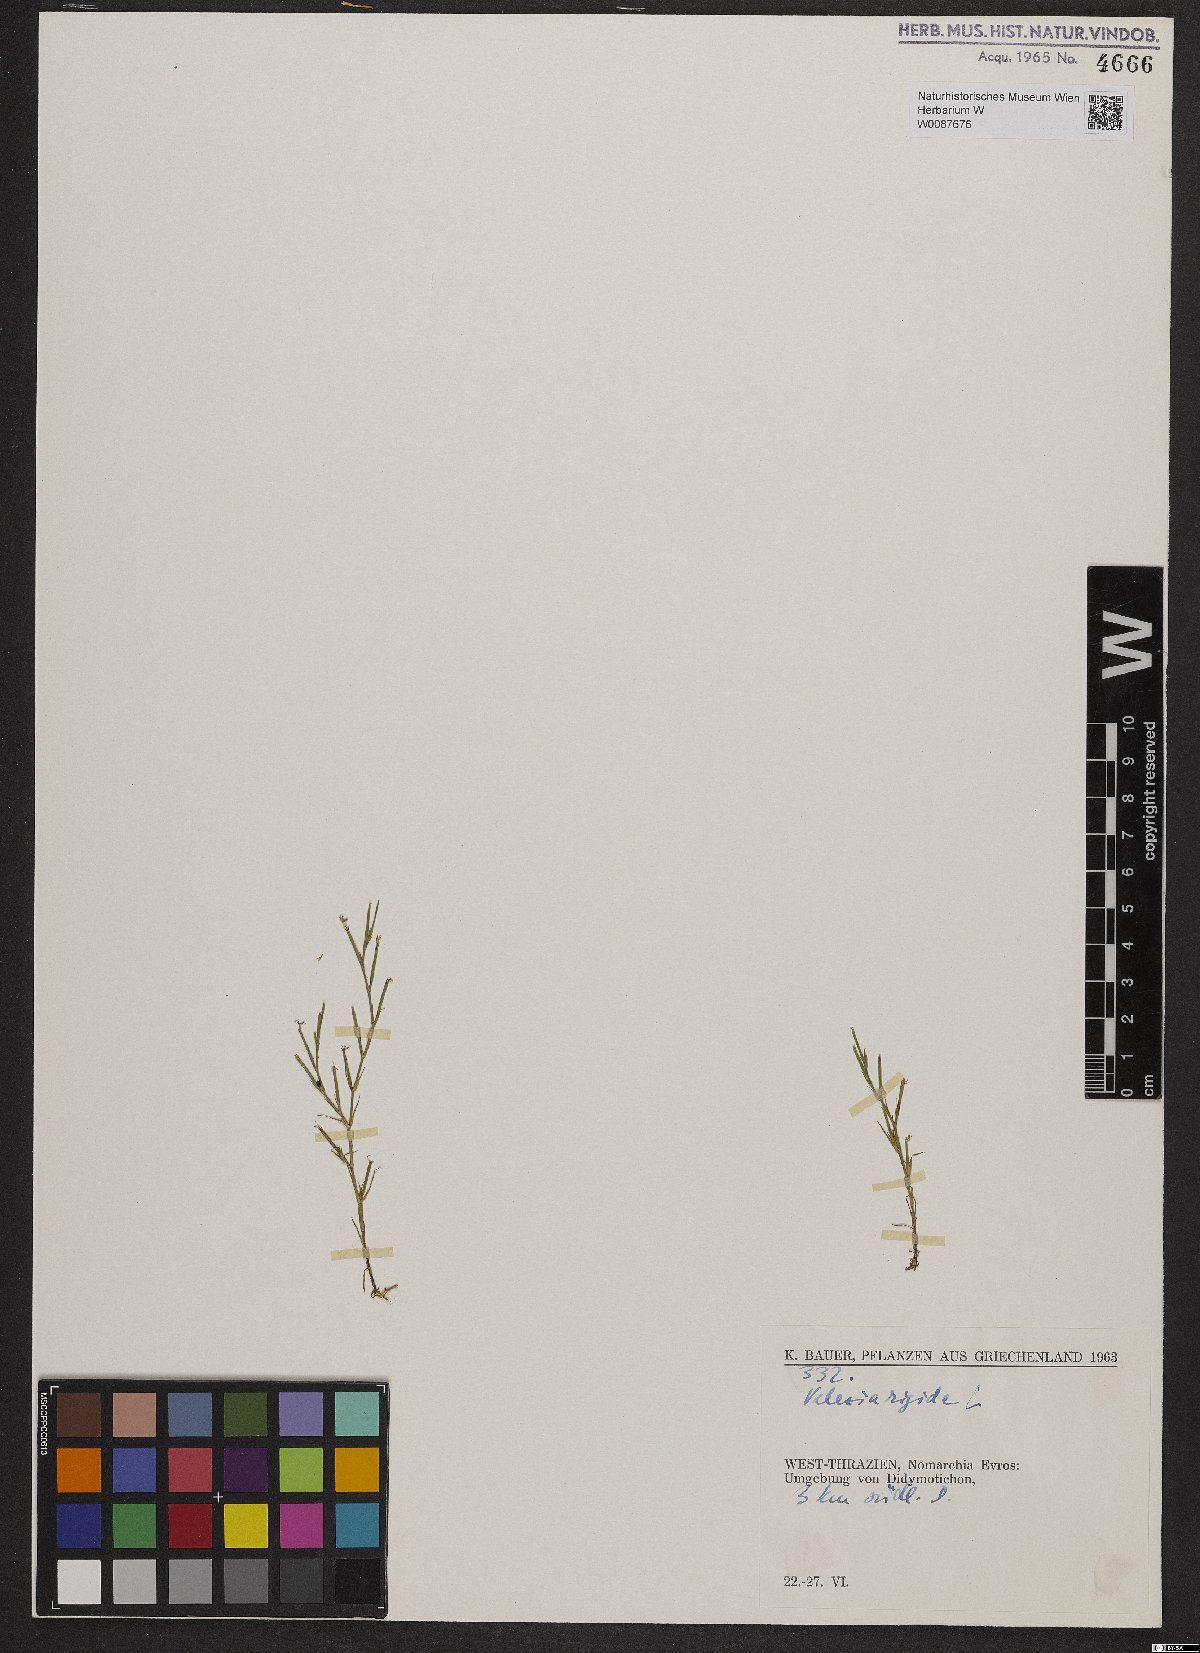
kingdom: Plantae
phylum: Tracheophyta
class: Magnoliopsida
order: Caryophyllales
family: Caryophyllaceae
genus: Dianthus
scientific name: Dianthus nudiflorus
